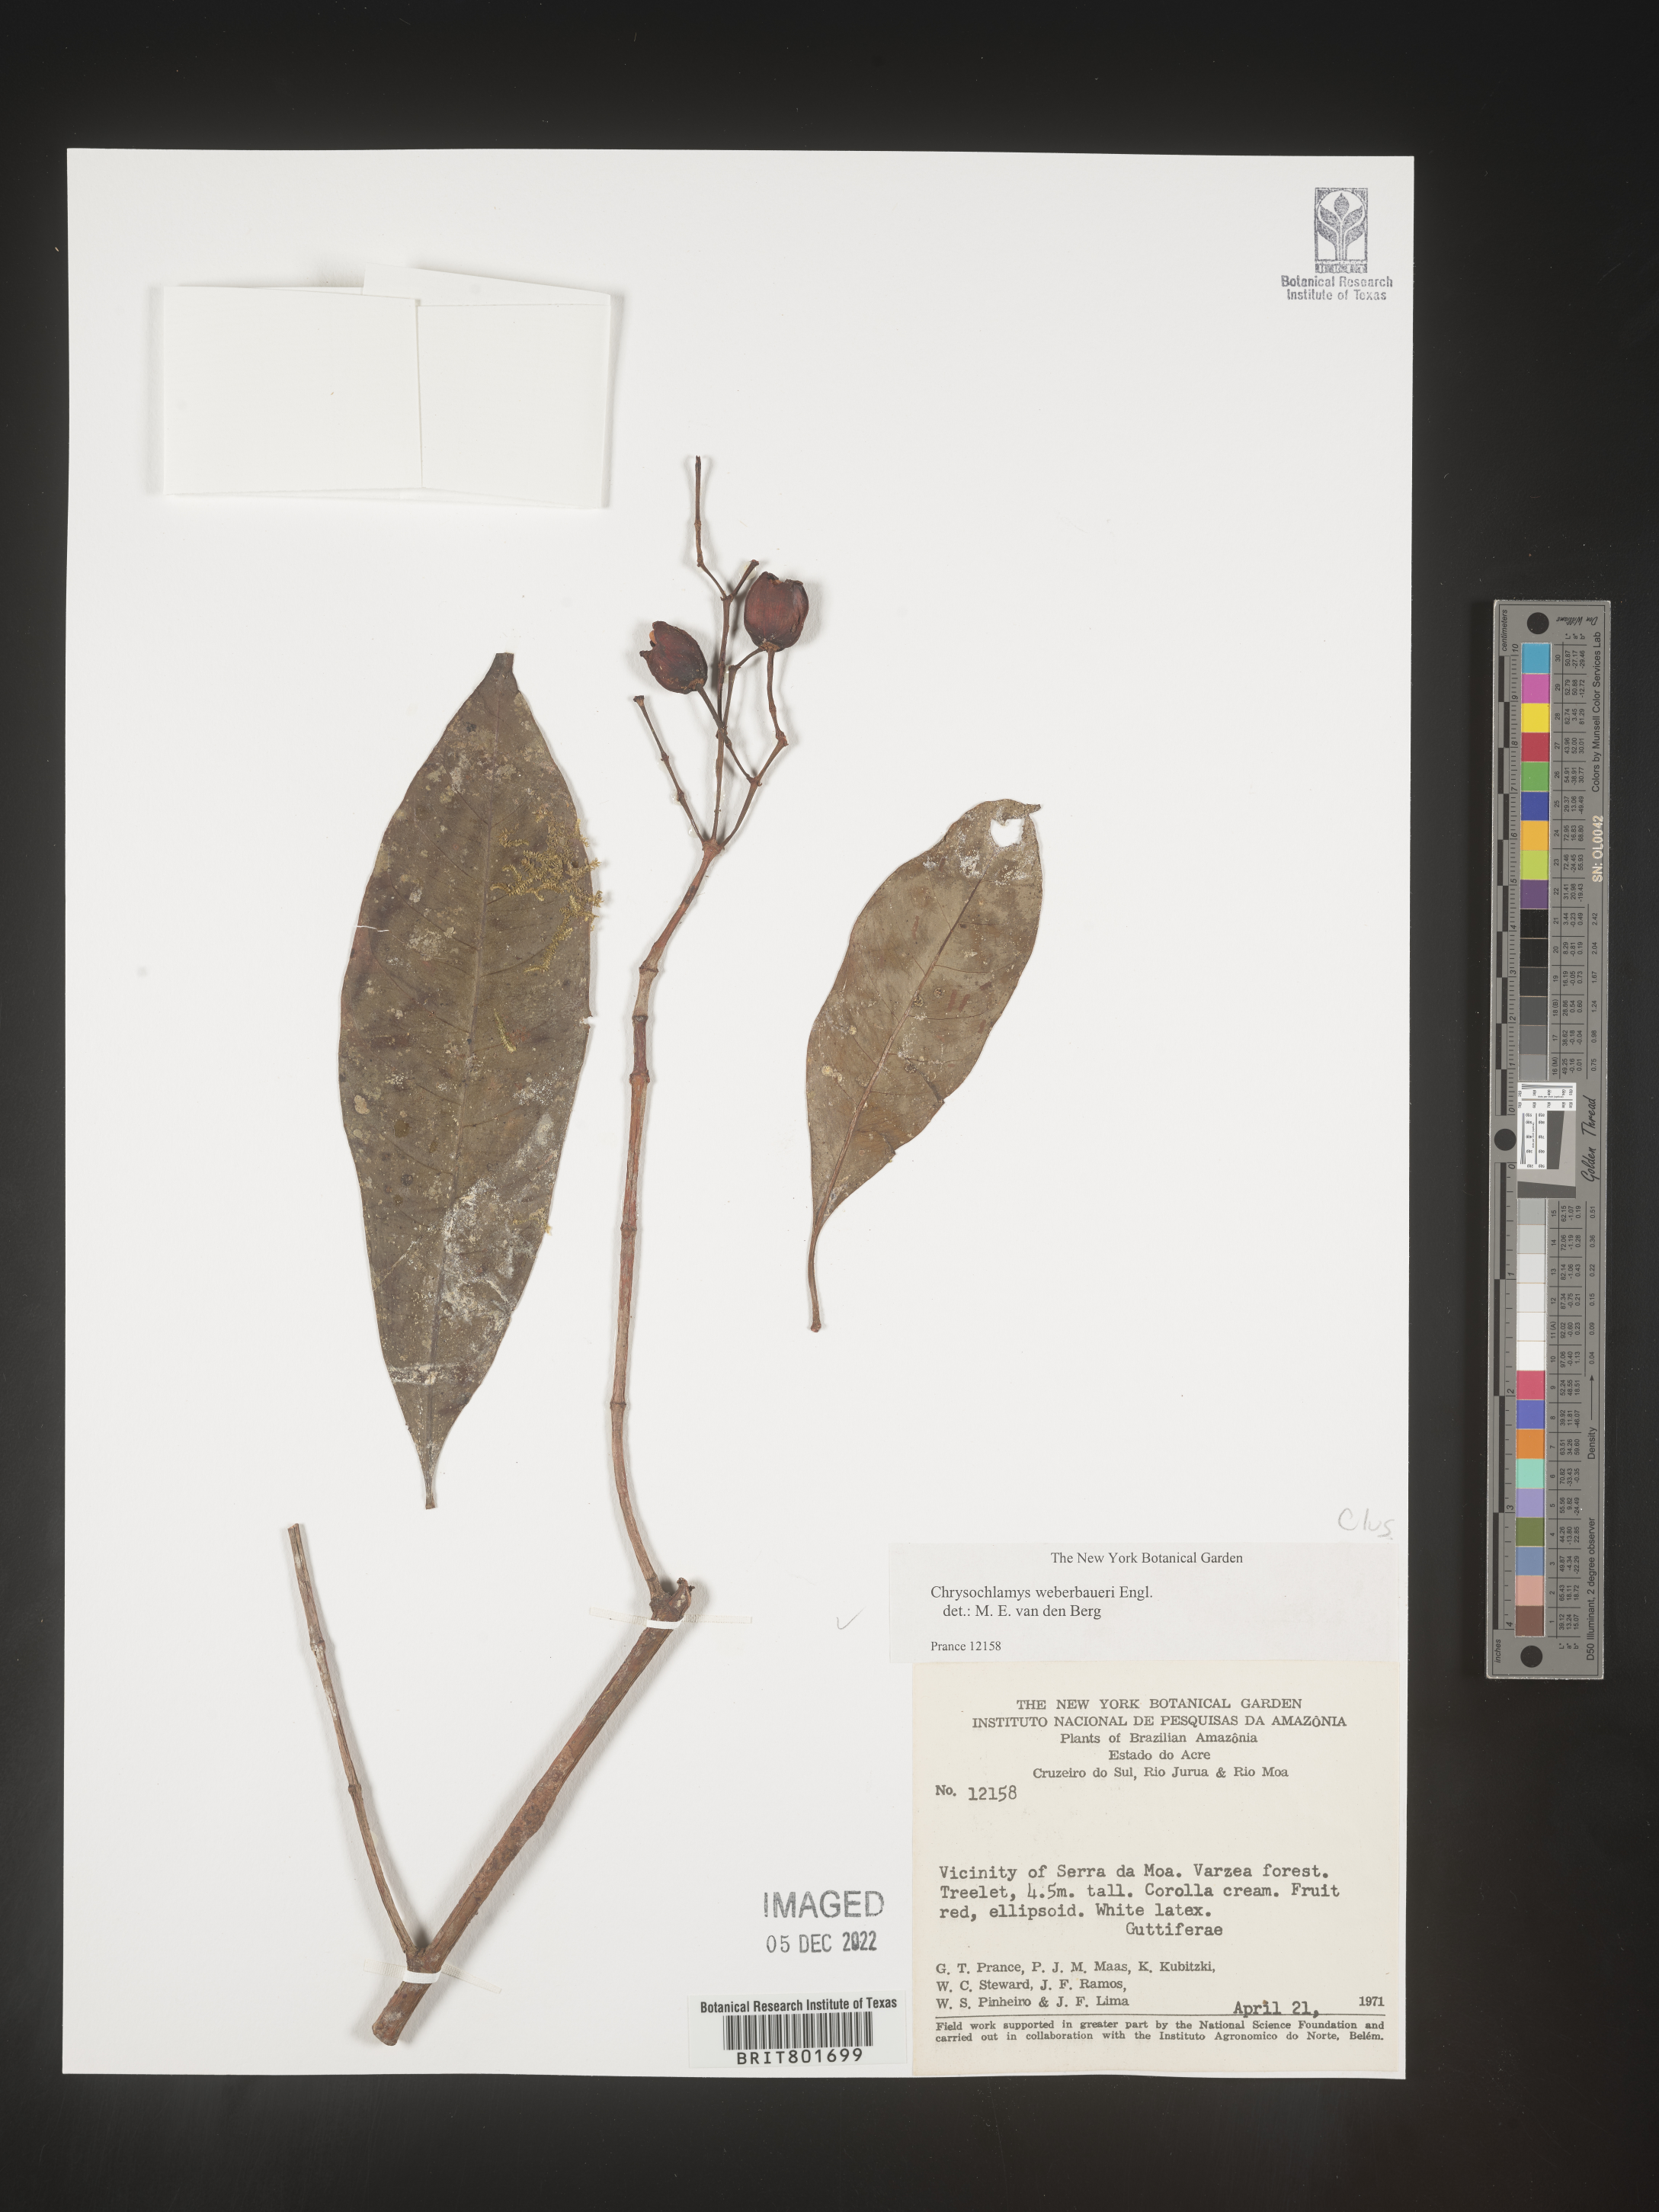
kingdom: Plantae
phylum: Tracheophyta
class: Magnoliopsida
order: Malpighiales
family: Clusiaceae
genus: Chrysochlamys
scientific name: Chrysochlamys
